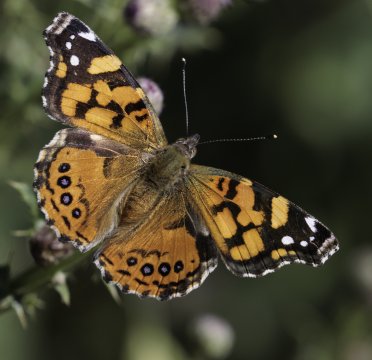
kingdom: Animalia
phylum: Arthropoda
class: Insecta
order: Lepidoptera
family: Nymphalidae
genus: Vanessa
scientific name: Vanessa annabella
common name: West Coast Lady
